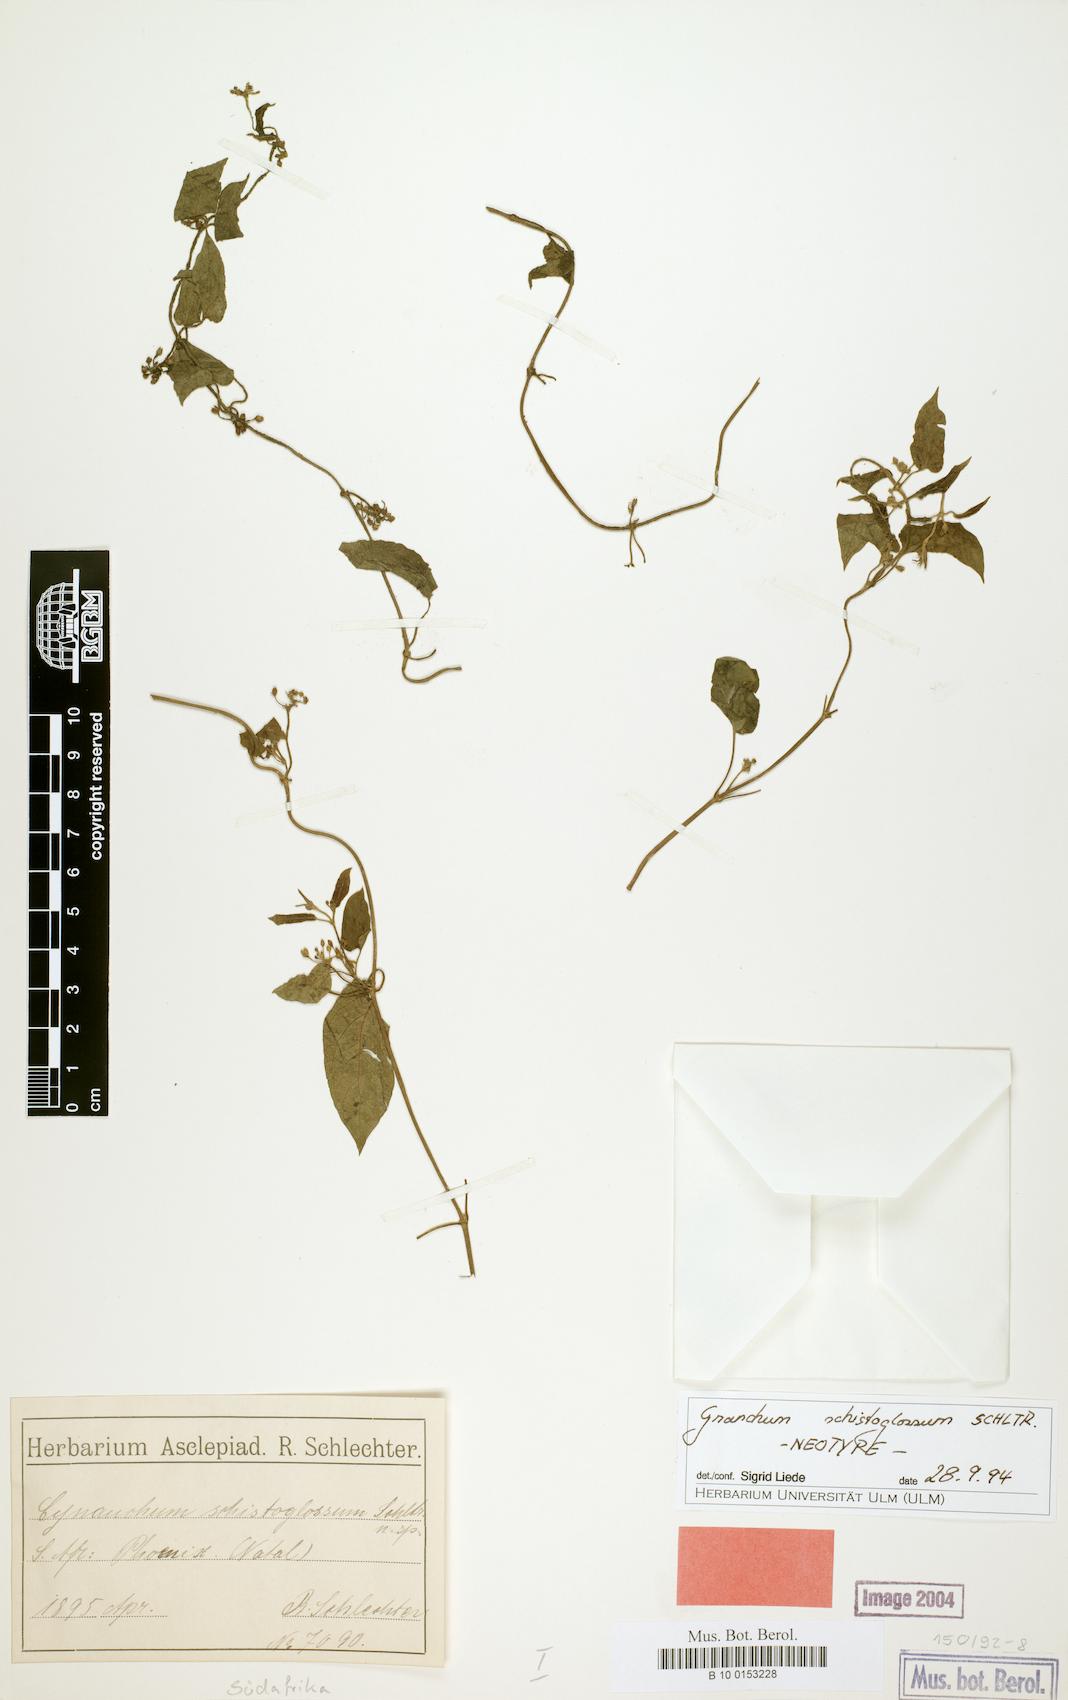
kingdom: Plantae
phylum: Tracheophyta
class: Magnoliopsida
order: Gentianales
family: Apocynaceae
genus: Cynanchum
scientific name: Cynanchum schistoglossum
